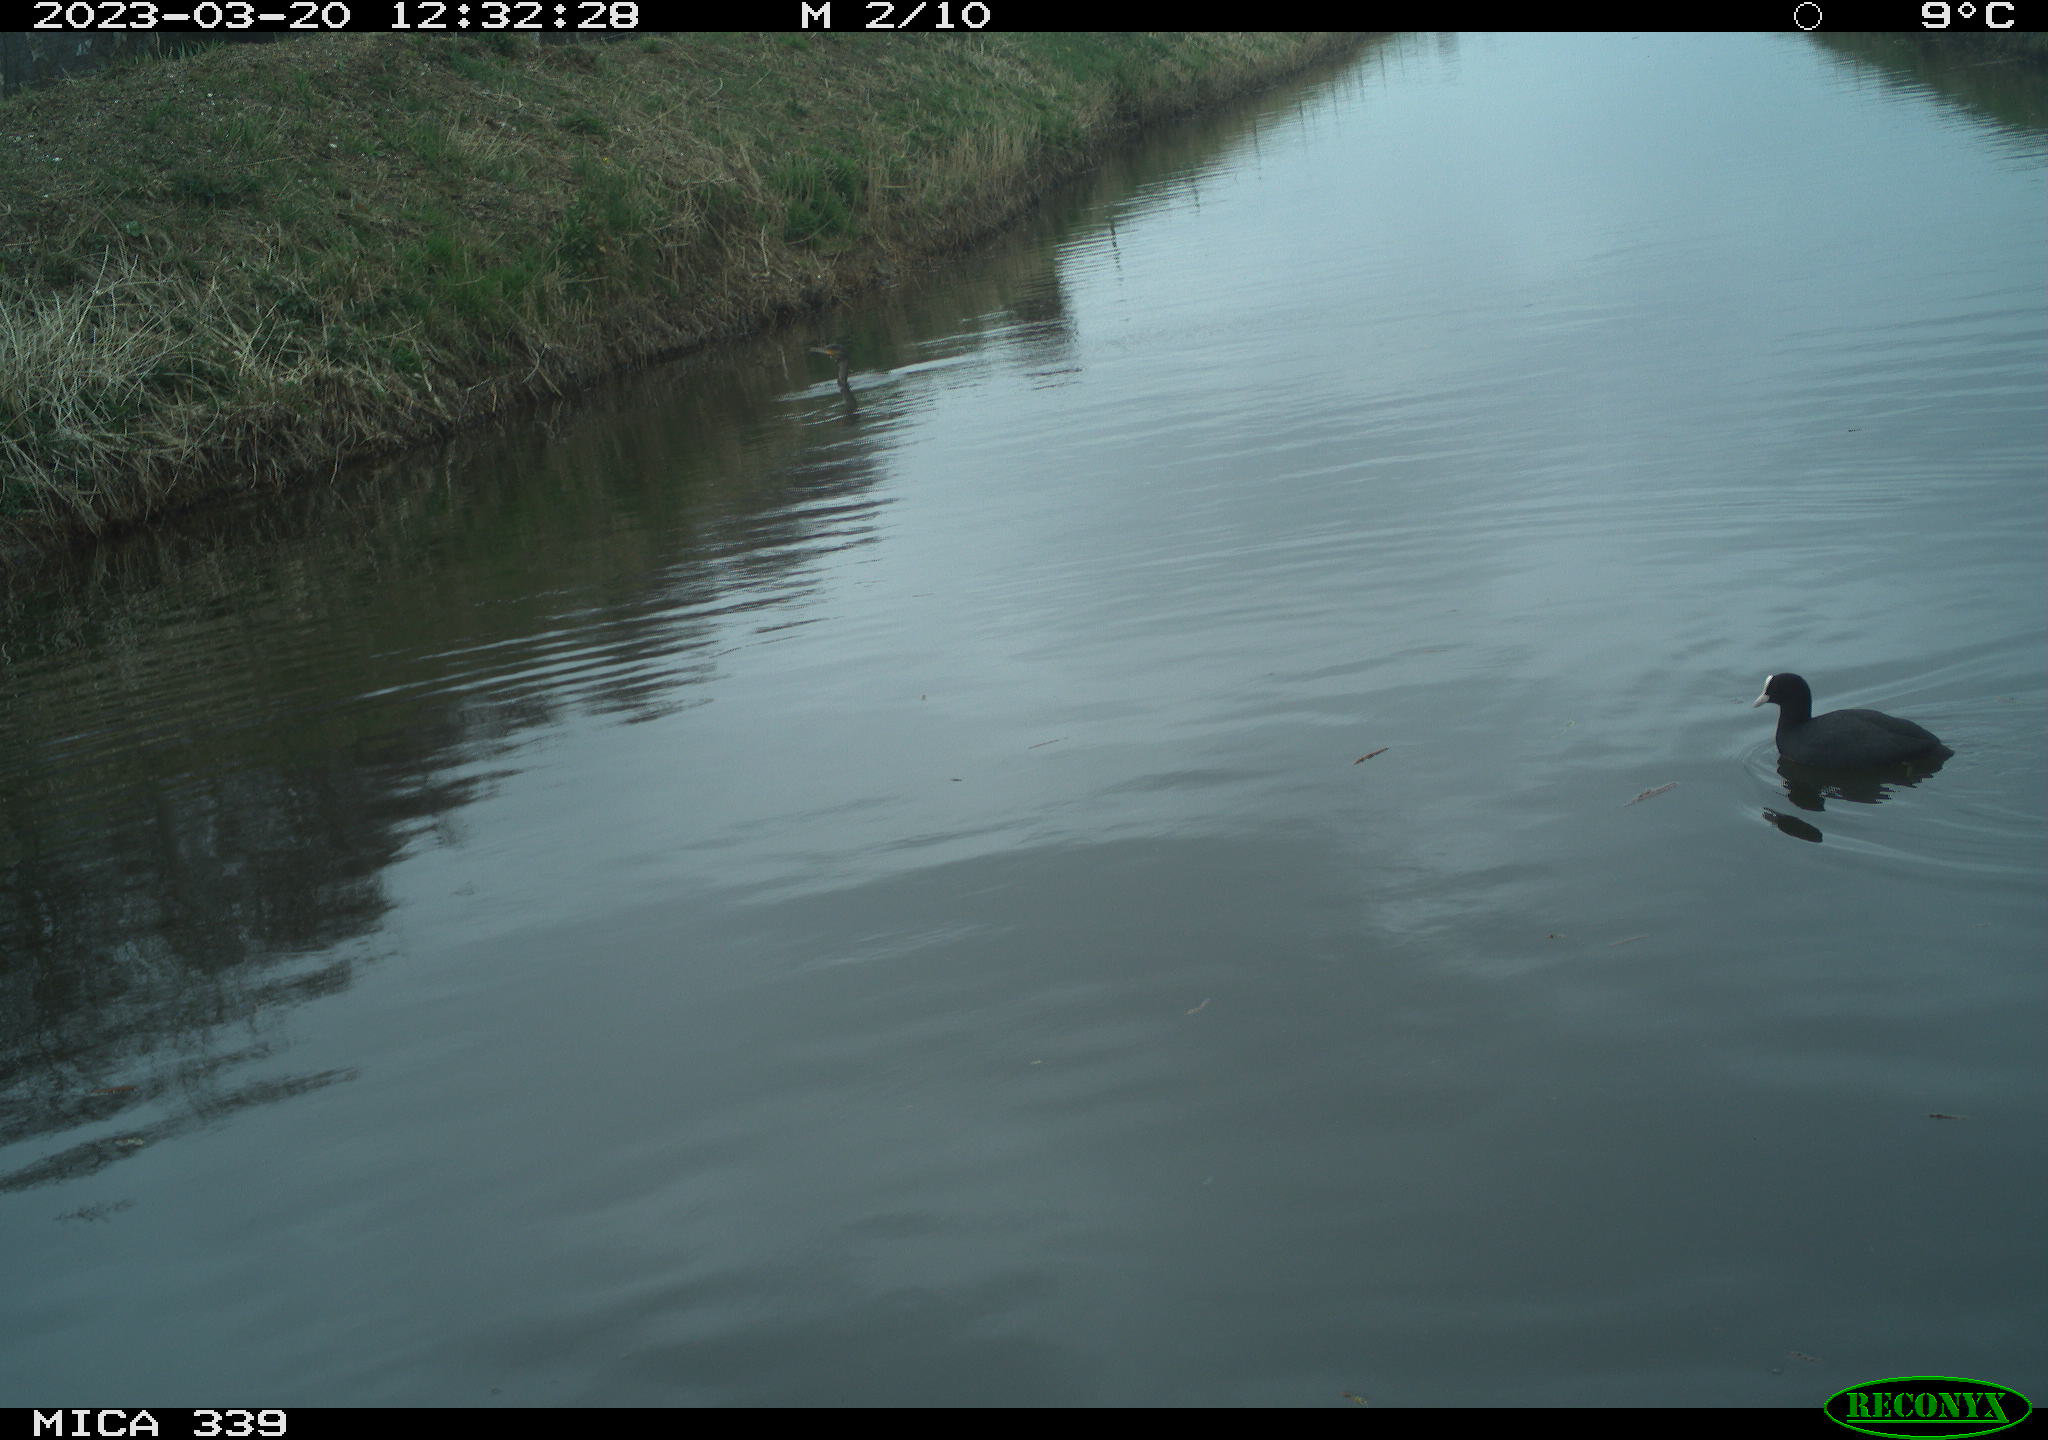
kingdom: Animalia
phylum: Chordata
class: Aves
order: Gruiformes
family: Rallidae
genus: Fulica
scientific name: Fulica atra
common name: Eurasian coot
